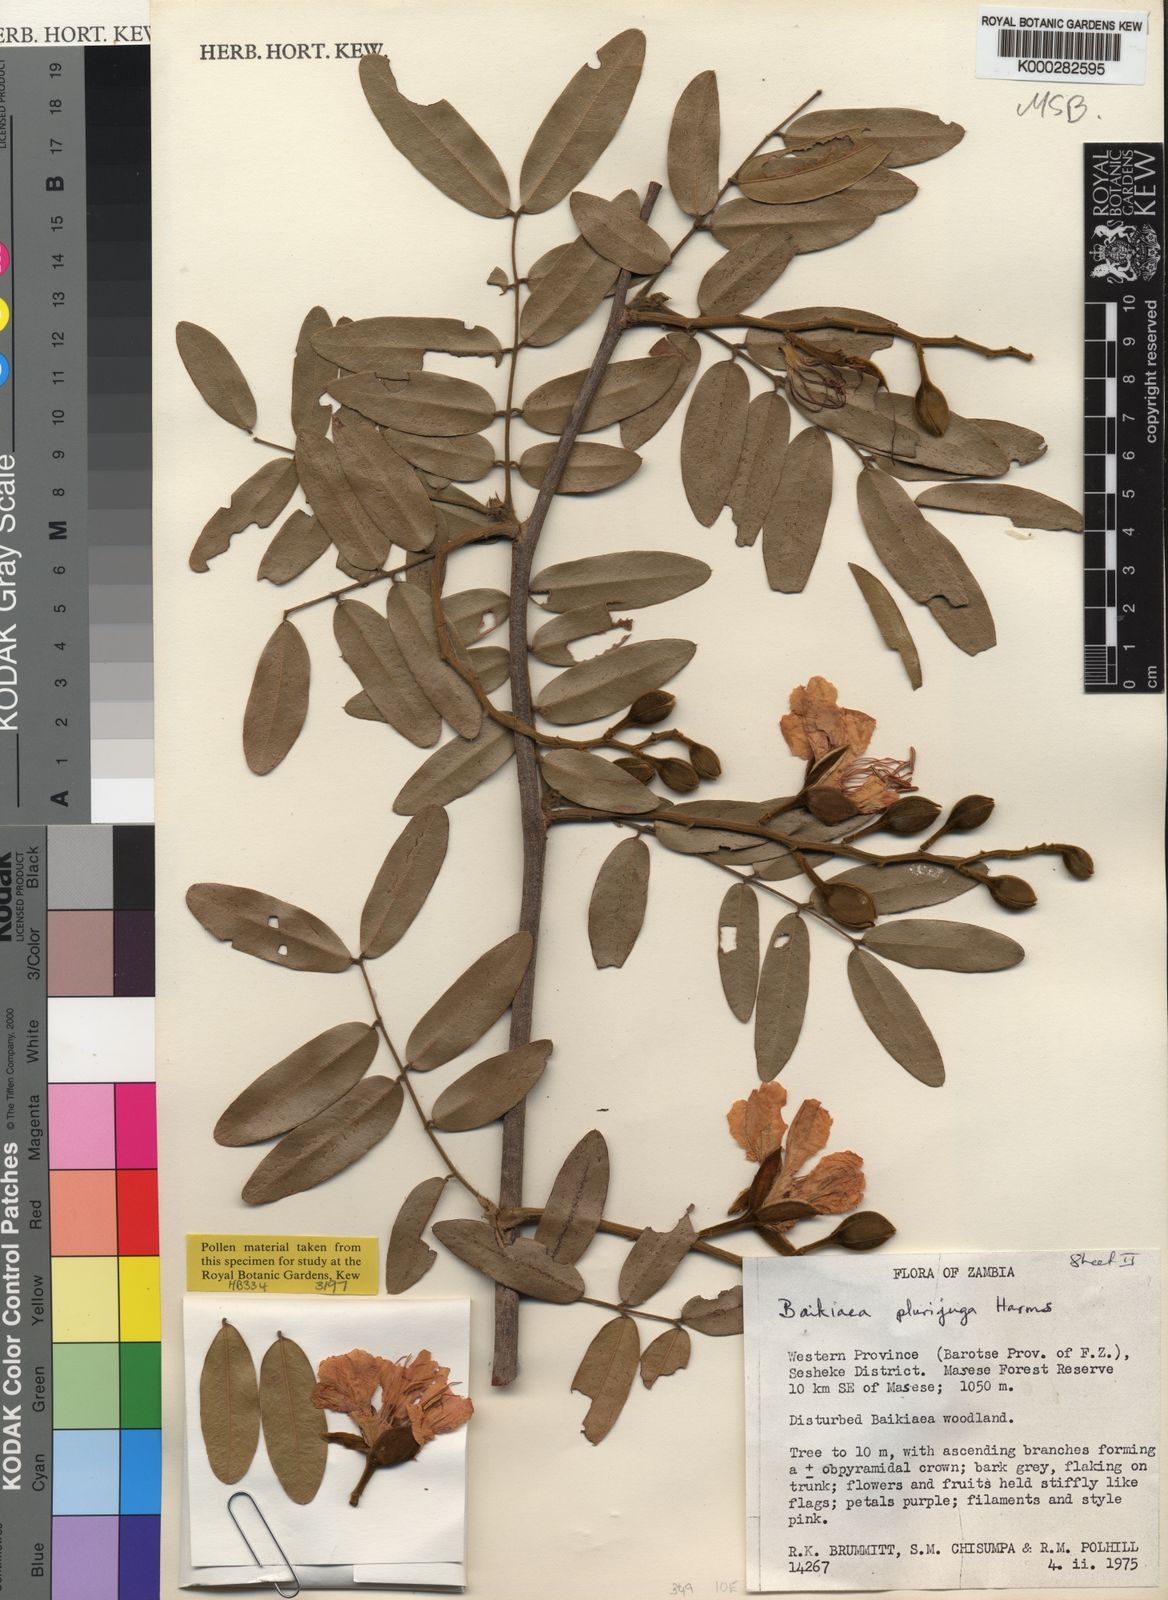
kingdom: Plantae
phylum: Tracheophyta
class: Magnoliopsida
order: Fabales
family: Fabaceae
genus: Baikiaea
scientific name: Baikiaea plurijuga
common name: Rhodesian-teak
